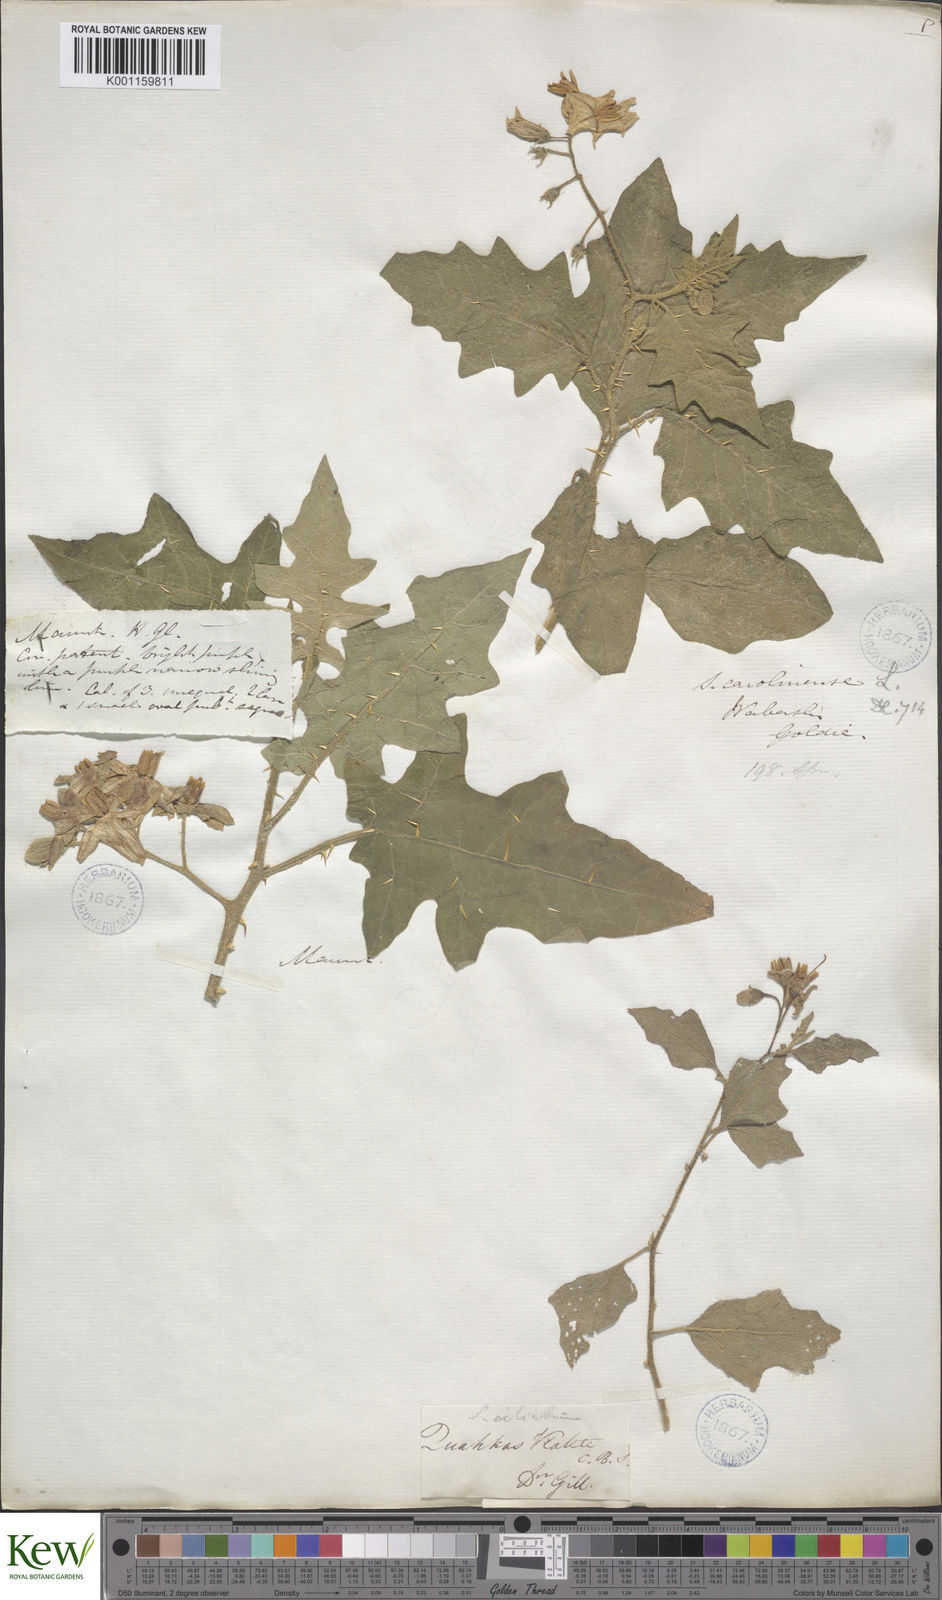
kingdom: Plantae
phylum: Tracheophyta
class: Magnoliopsida
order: Solanales
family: Solanaceae
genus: Solanum
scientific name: Solanum carolinense
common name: Horse-nettle
